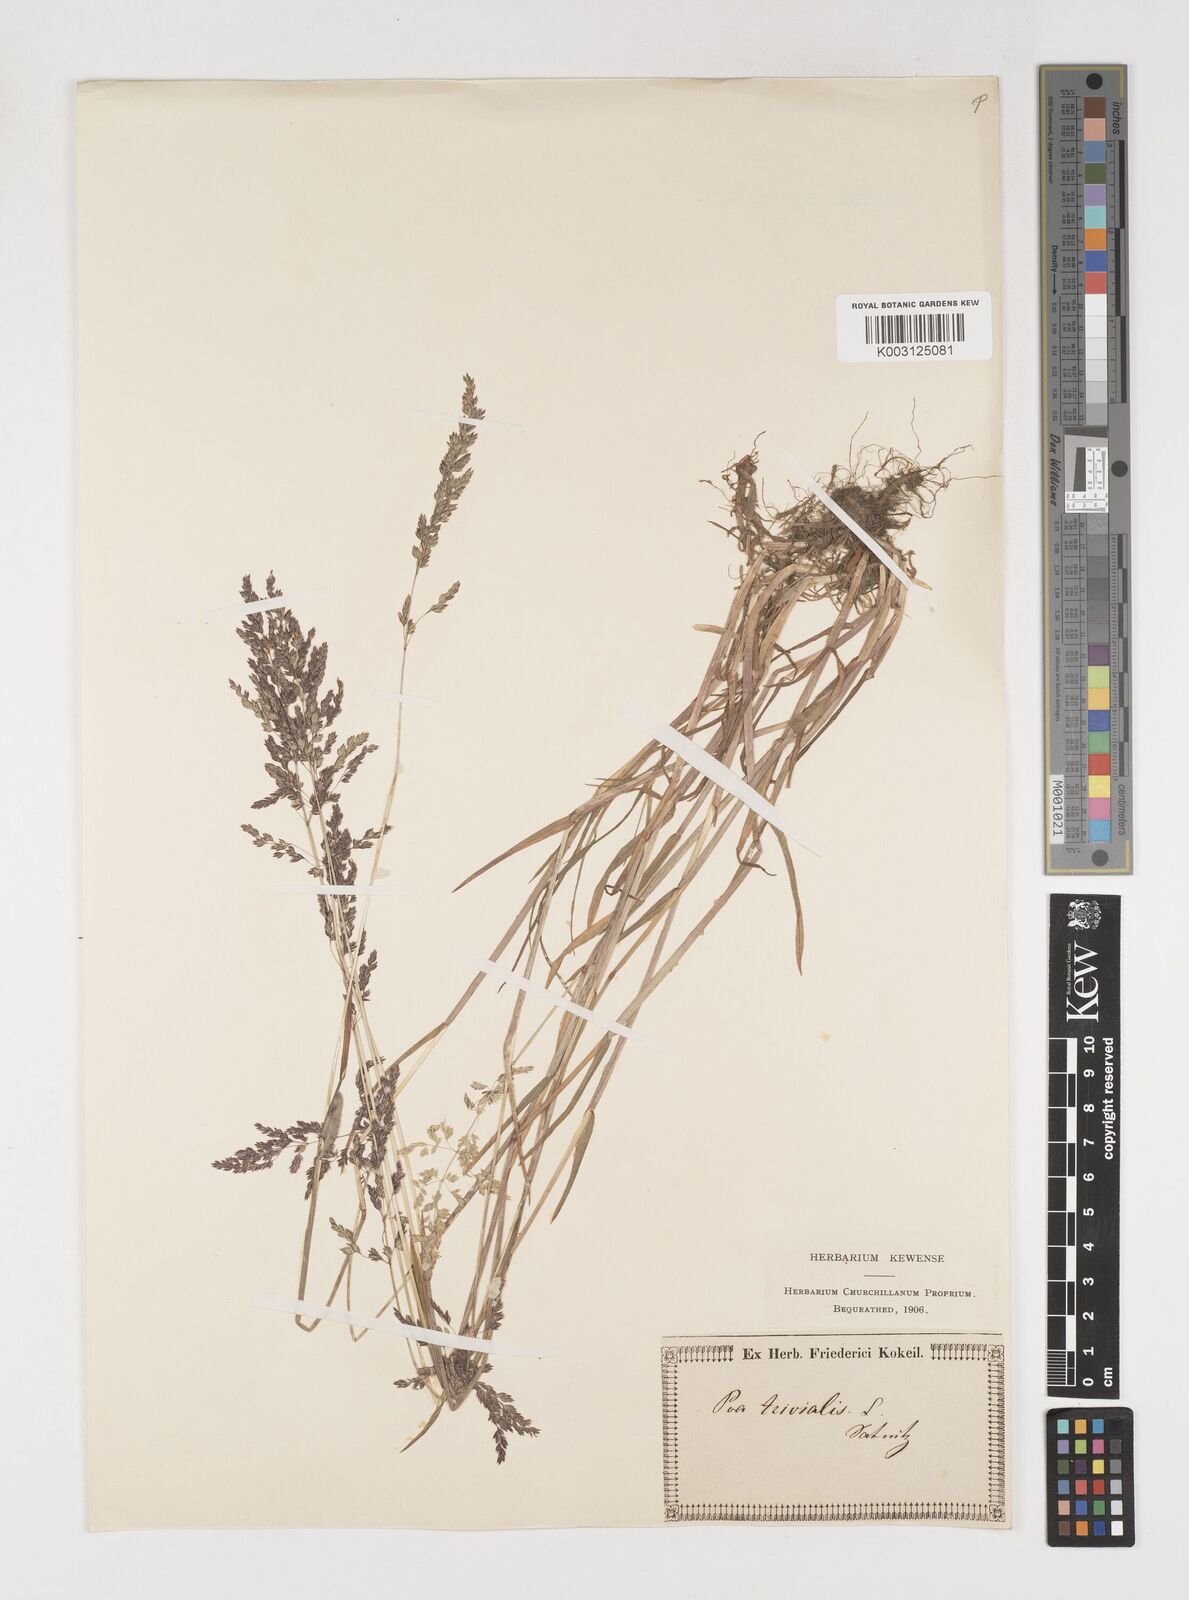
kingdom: Plantae
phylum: Tracheophyta
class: Liliopsida
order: Poales
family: Poaceae
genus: Poa
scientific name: Poa trivialis
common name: Rough bluegrass
